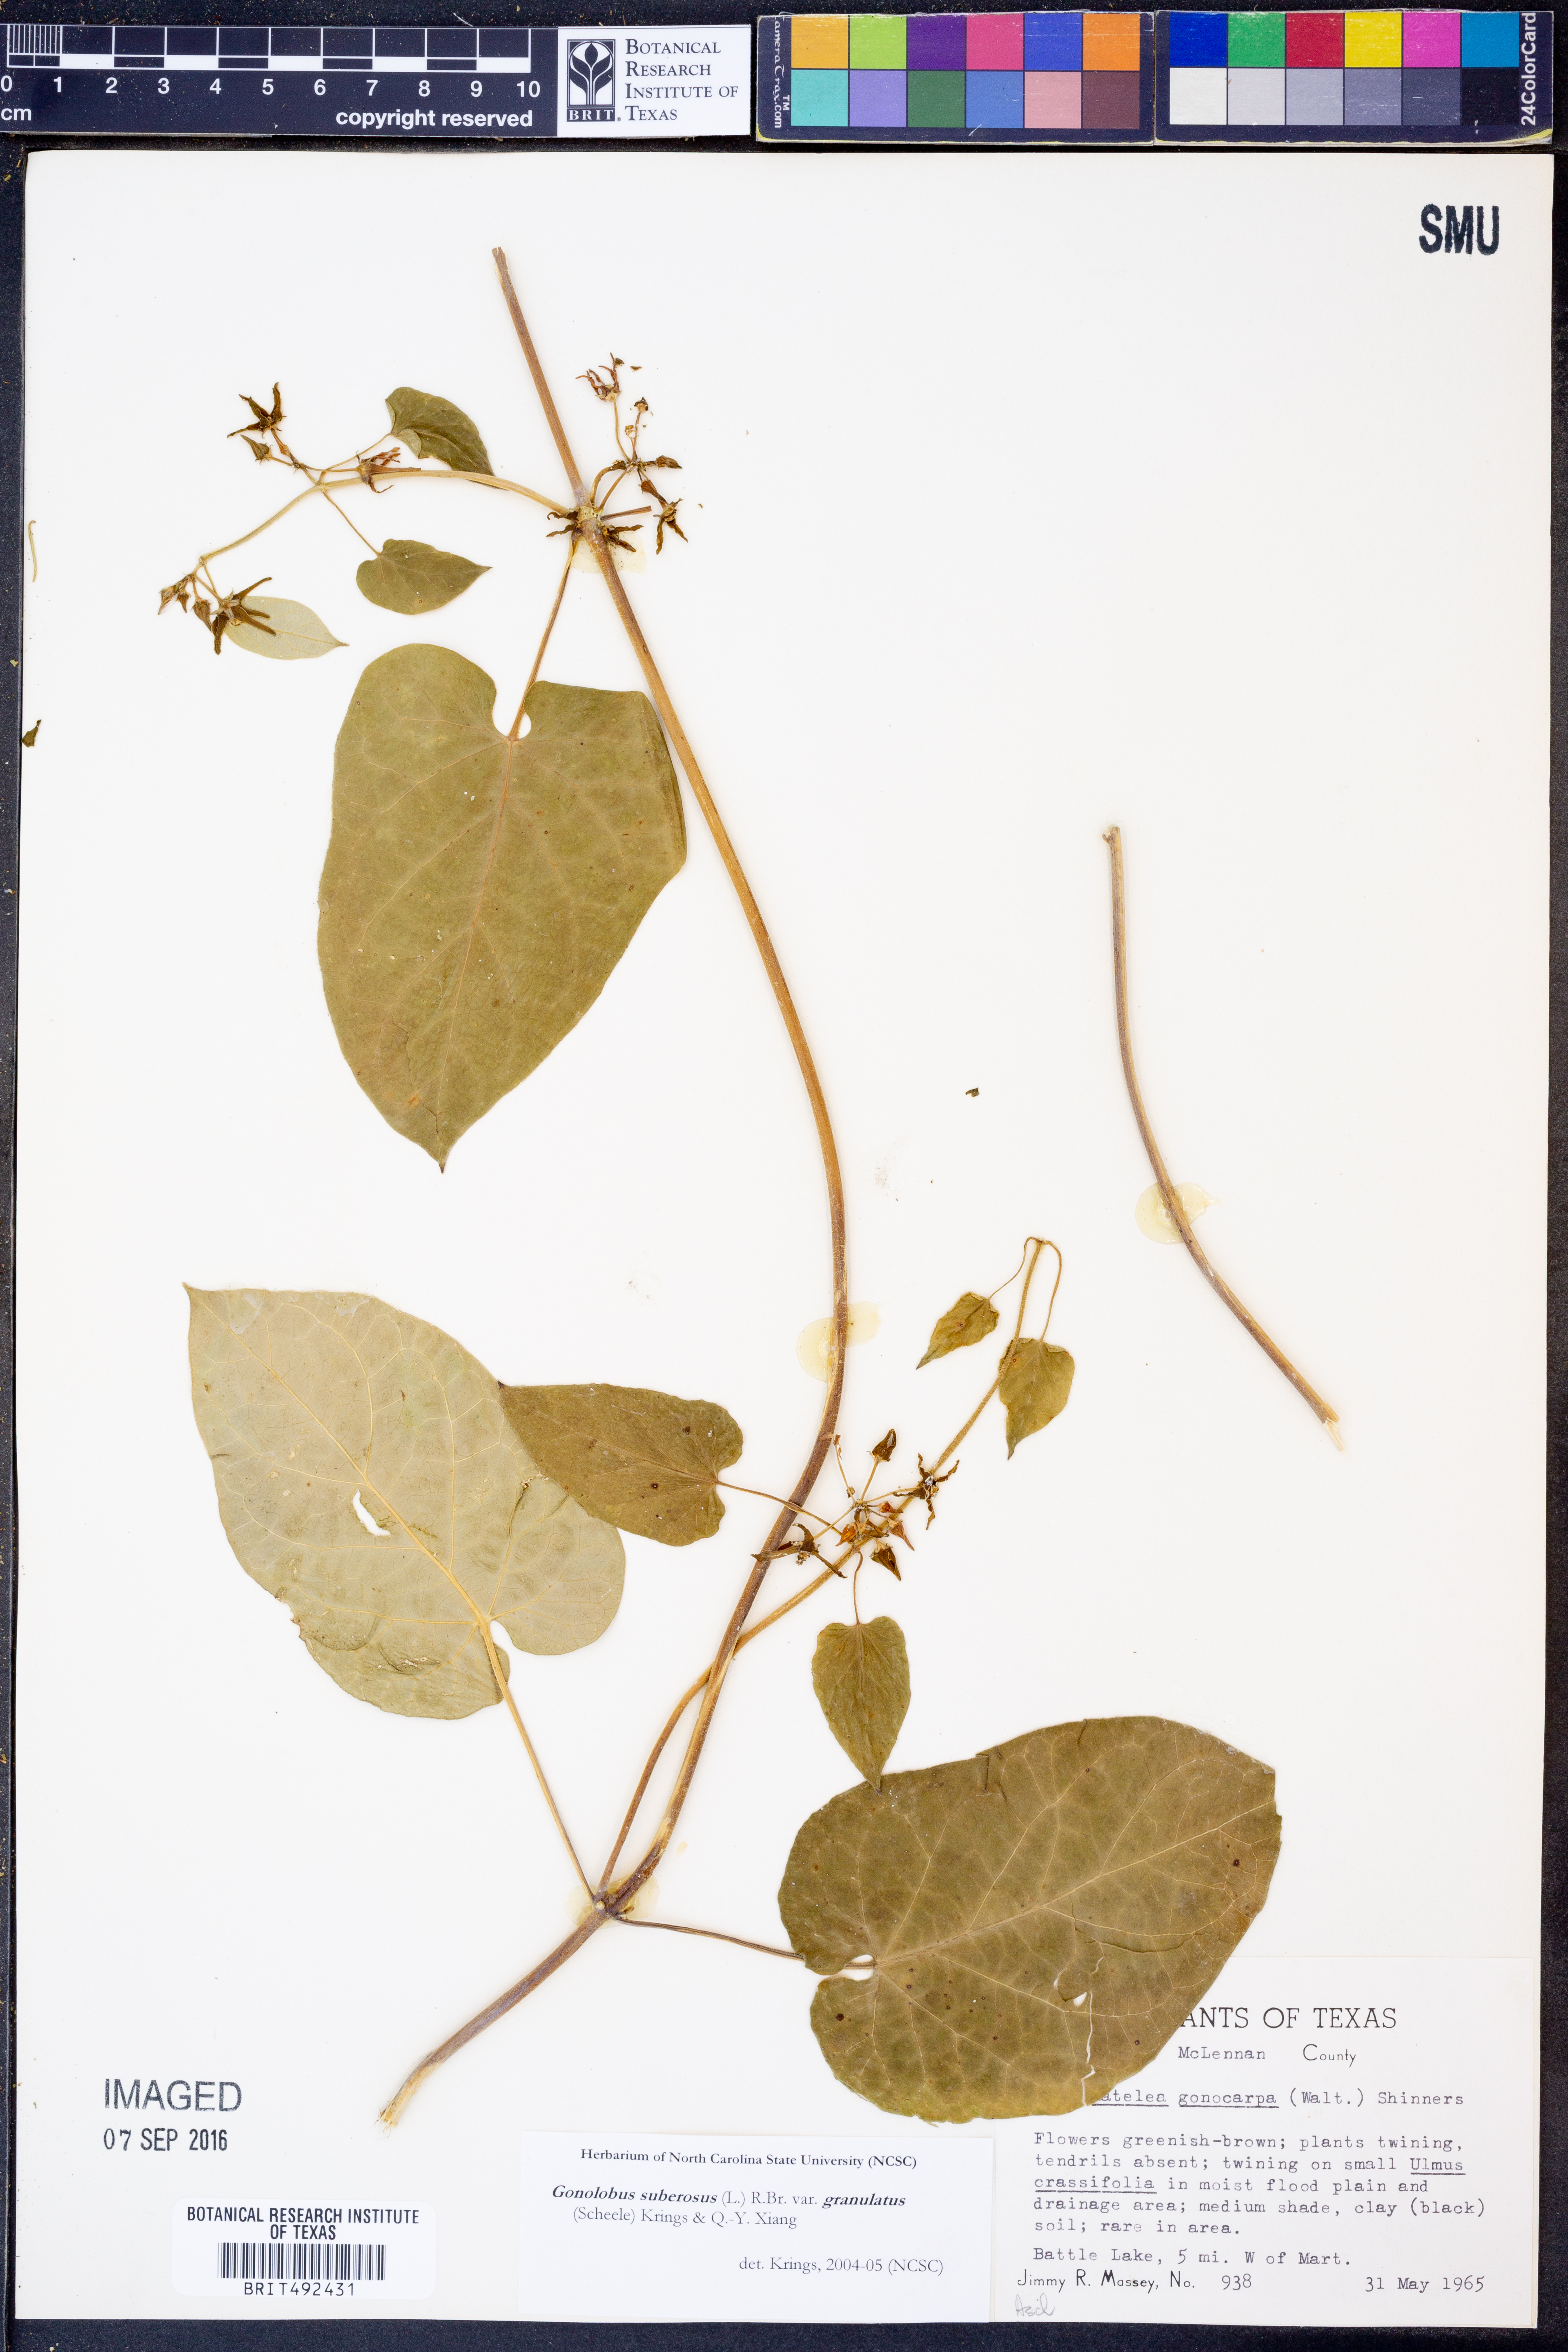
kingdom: Plantae
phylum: Tracheophyta
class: Magnoliopsida
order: Gentianales
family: Apocynaceae
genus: Gonolobus
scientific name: Gonolobus suberosus
